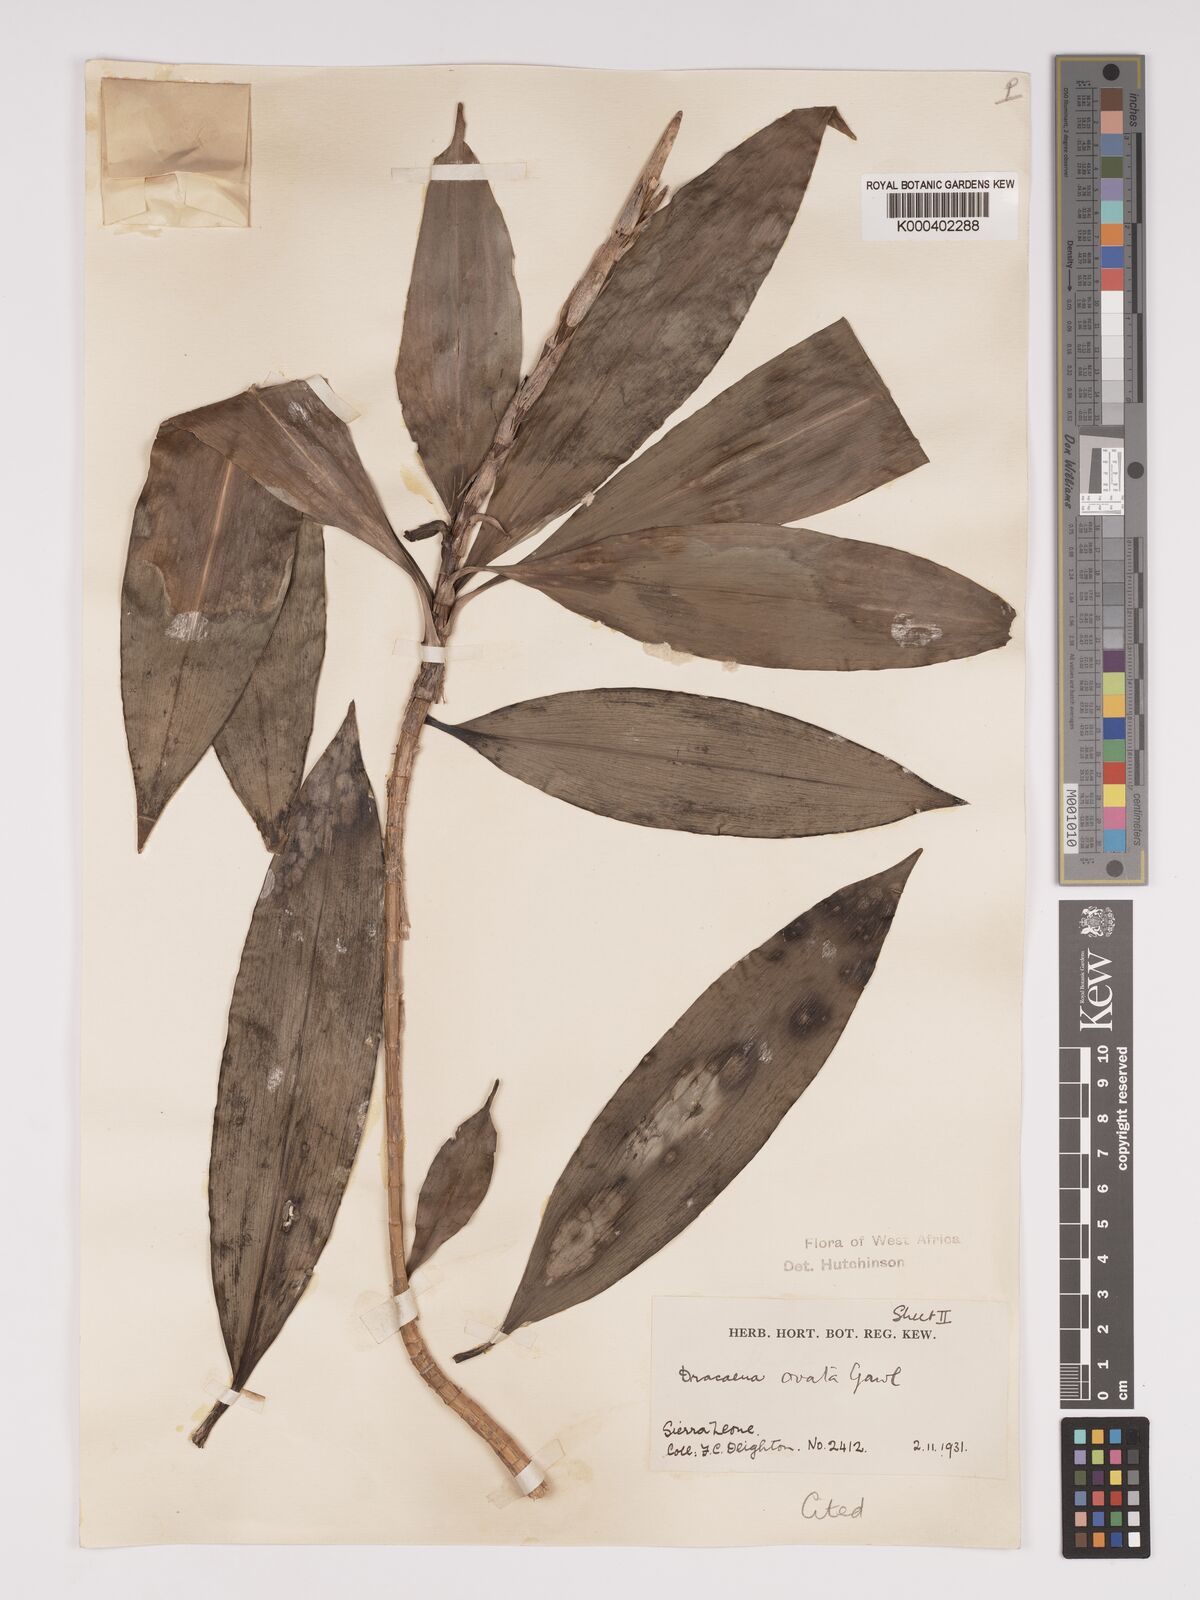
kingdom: Plantae
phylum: Tracheophyta
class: Liliopsida
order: Asparagales
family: Asparagaceae
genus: Dracaena
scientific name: Dracaena ovata
